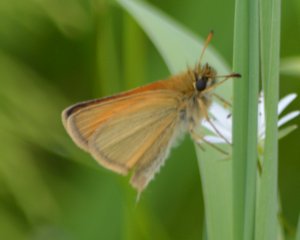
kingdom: Animalia
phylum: Arthropoda
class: Insecta
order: Lepidoptera
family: Hesperiidae
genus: Thymelicus
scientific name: Thymelicus lineola
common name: European Skipper
